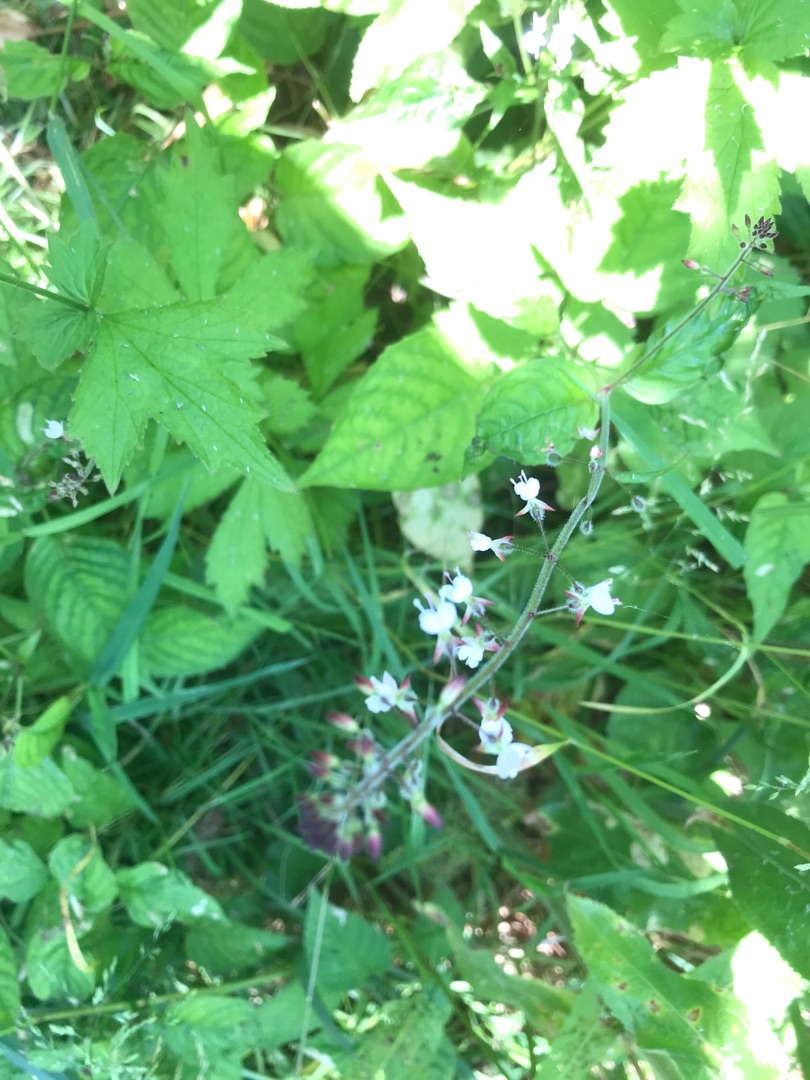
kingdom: Plantae
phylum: Tracheophyta
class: Magnoliopsida
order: Myrtales
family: Onagraceae
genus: Circaea
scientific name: Circaea lutetiana
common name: Dunet steffensurt
